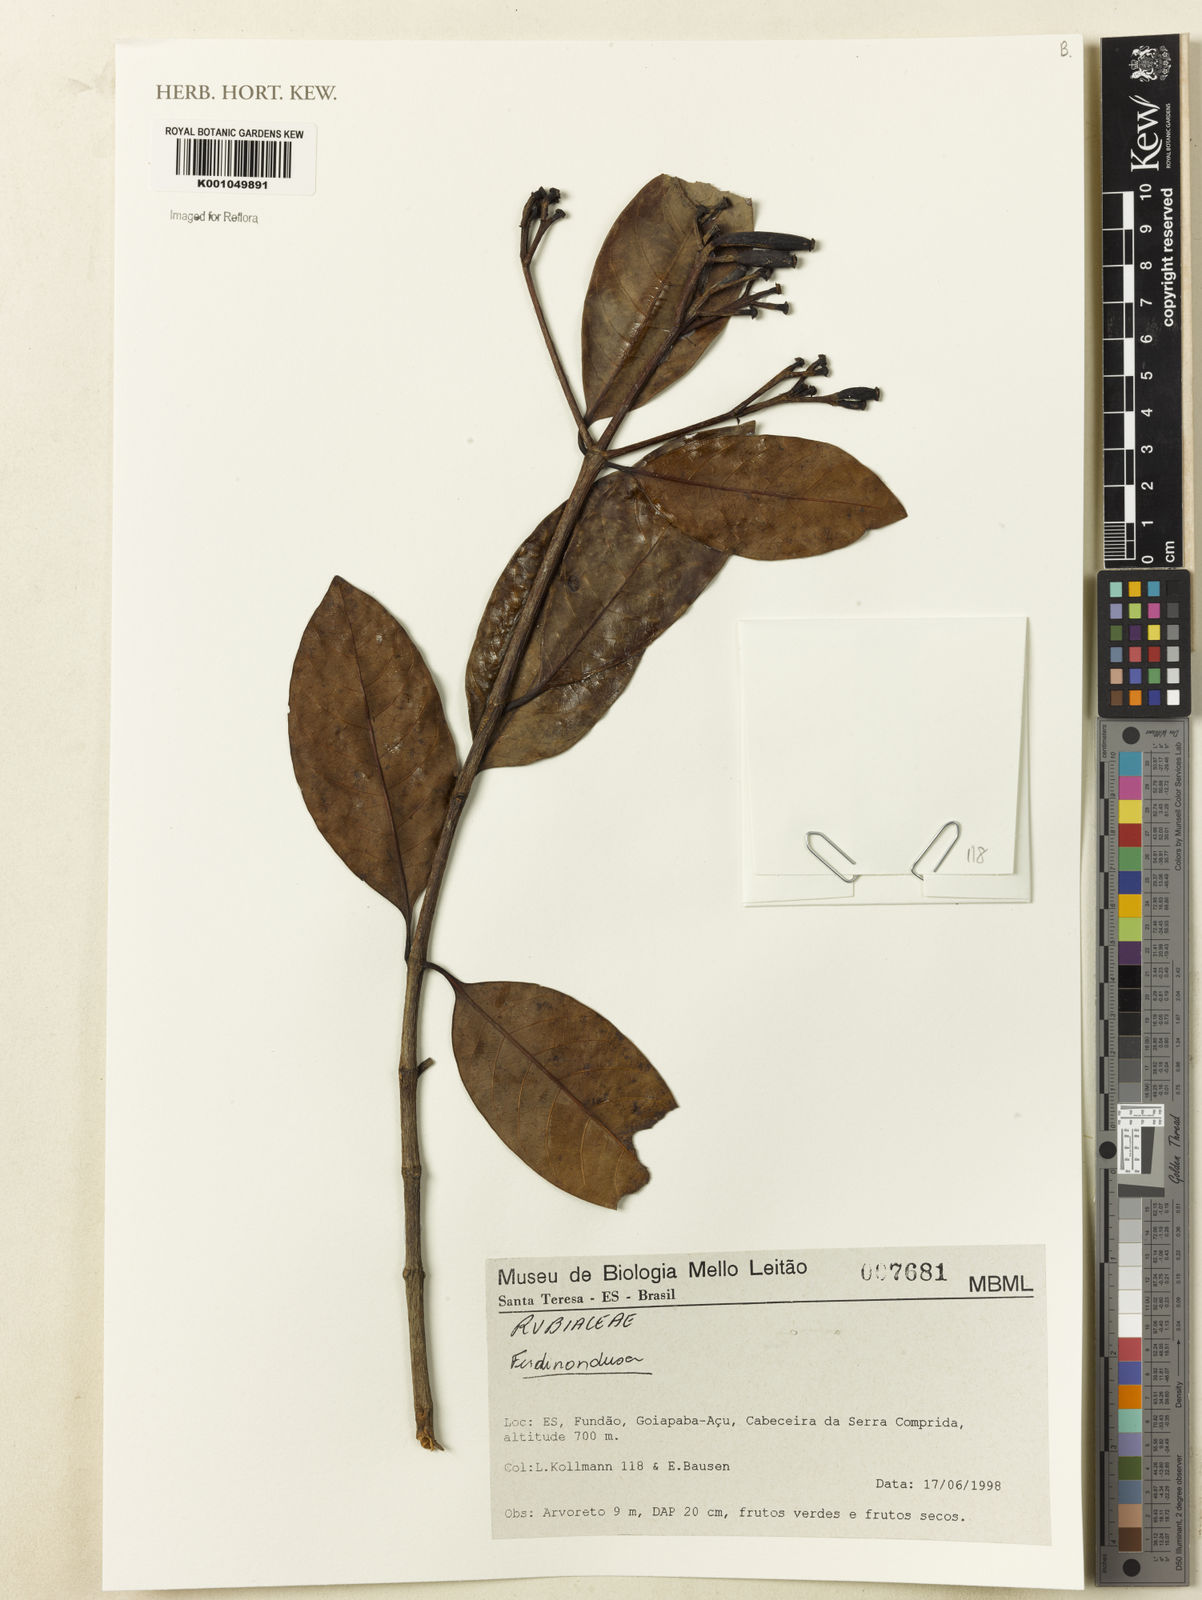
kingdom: Plantae
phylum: Tracheophyta
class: Magnoliopsida
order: Gentianales
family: Rubiaceae
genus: Ferdinandusa
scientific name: Ferdinandusa
